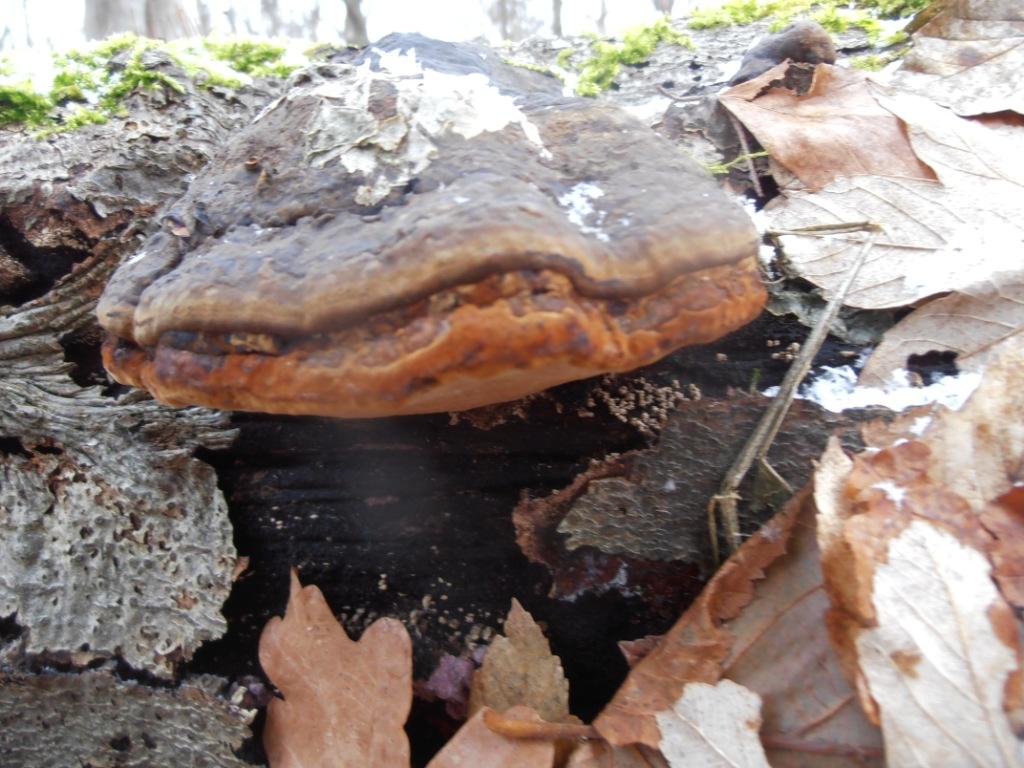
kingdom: Fungi
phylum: Basidiomycota
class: Agaricomycetes
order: Polyporales
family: Polyporaceae
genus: Fomes
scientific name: Fomes fomentarius
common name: tøndersvamp
